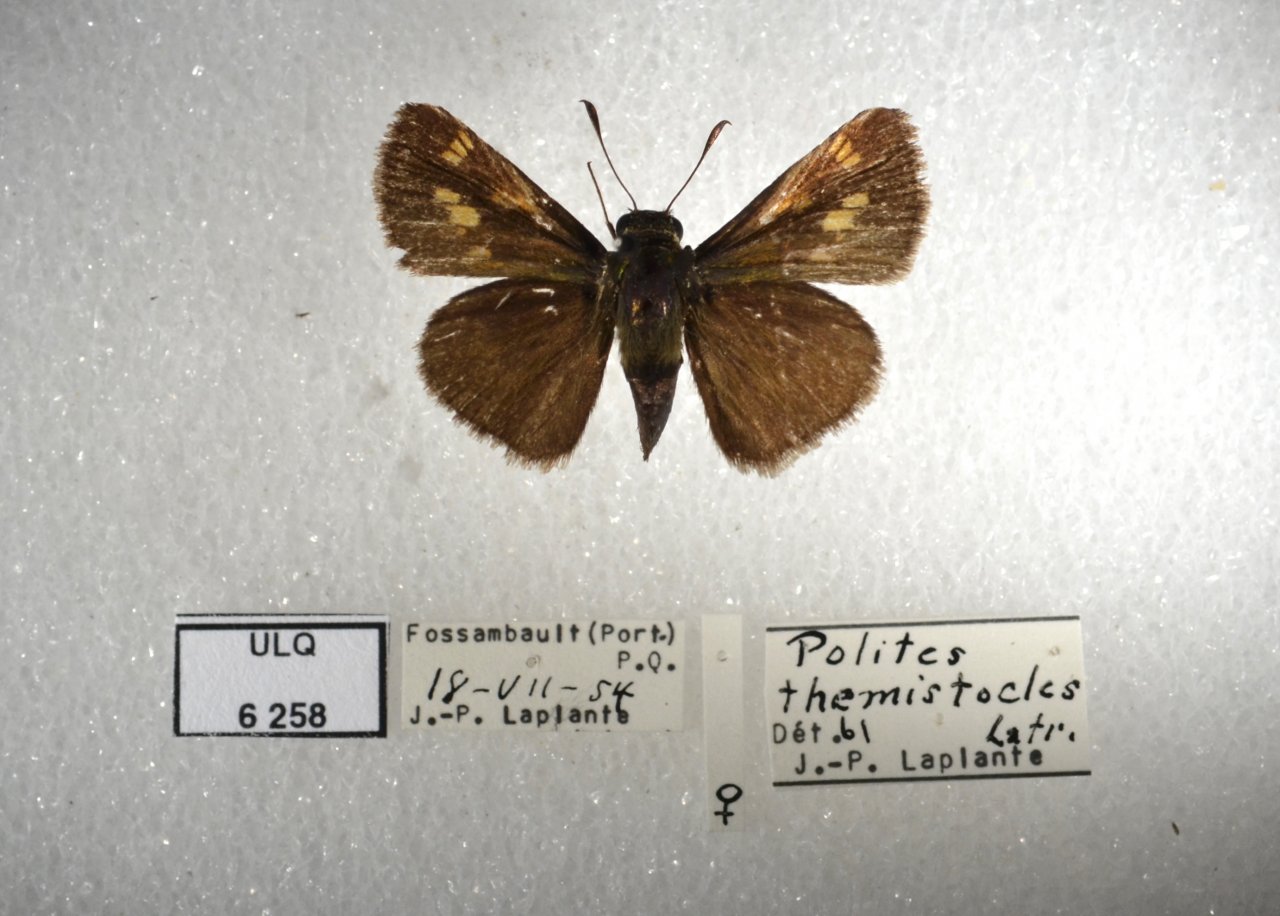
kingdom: Animalia
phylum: Arthropoda
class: Insecta
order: Lepidoptera
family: Hesperiidae
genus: Polites
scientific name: Polites themistocles
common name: Tawny-edged Skipper
